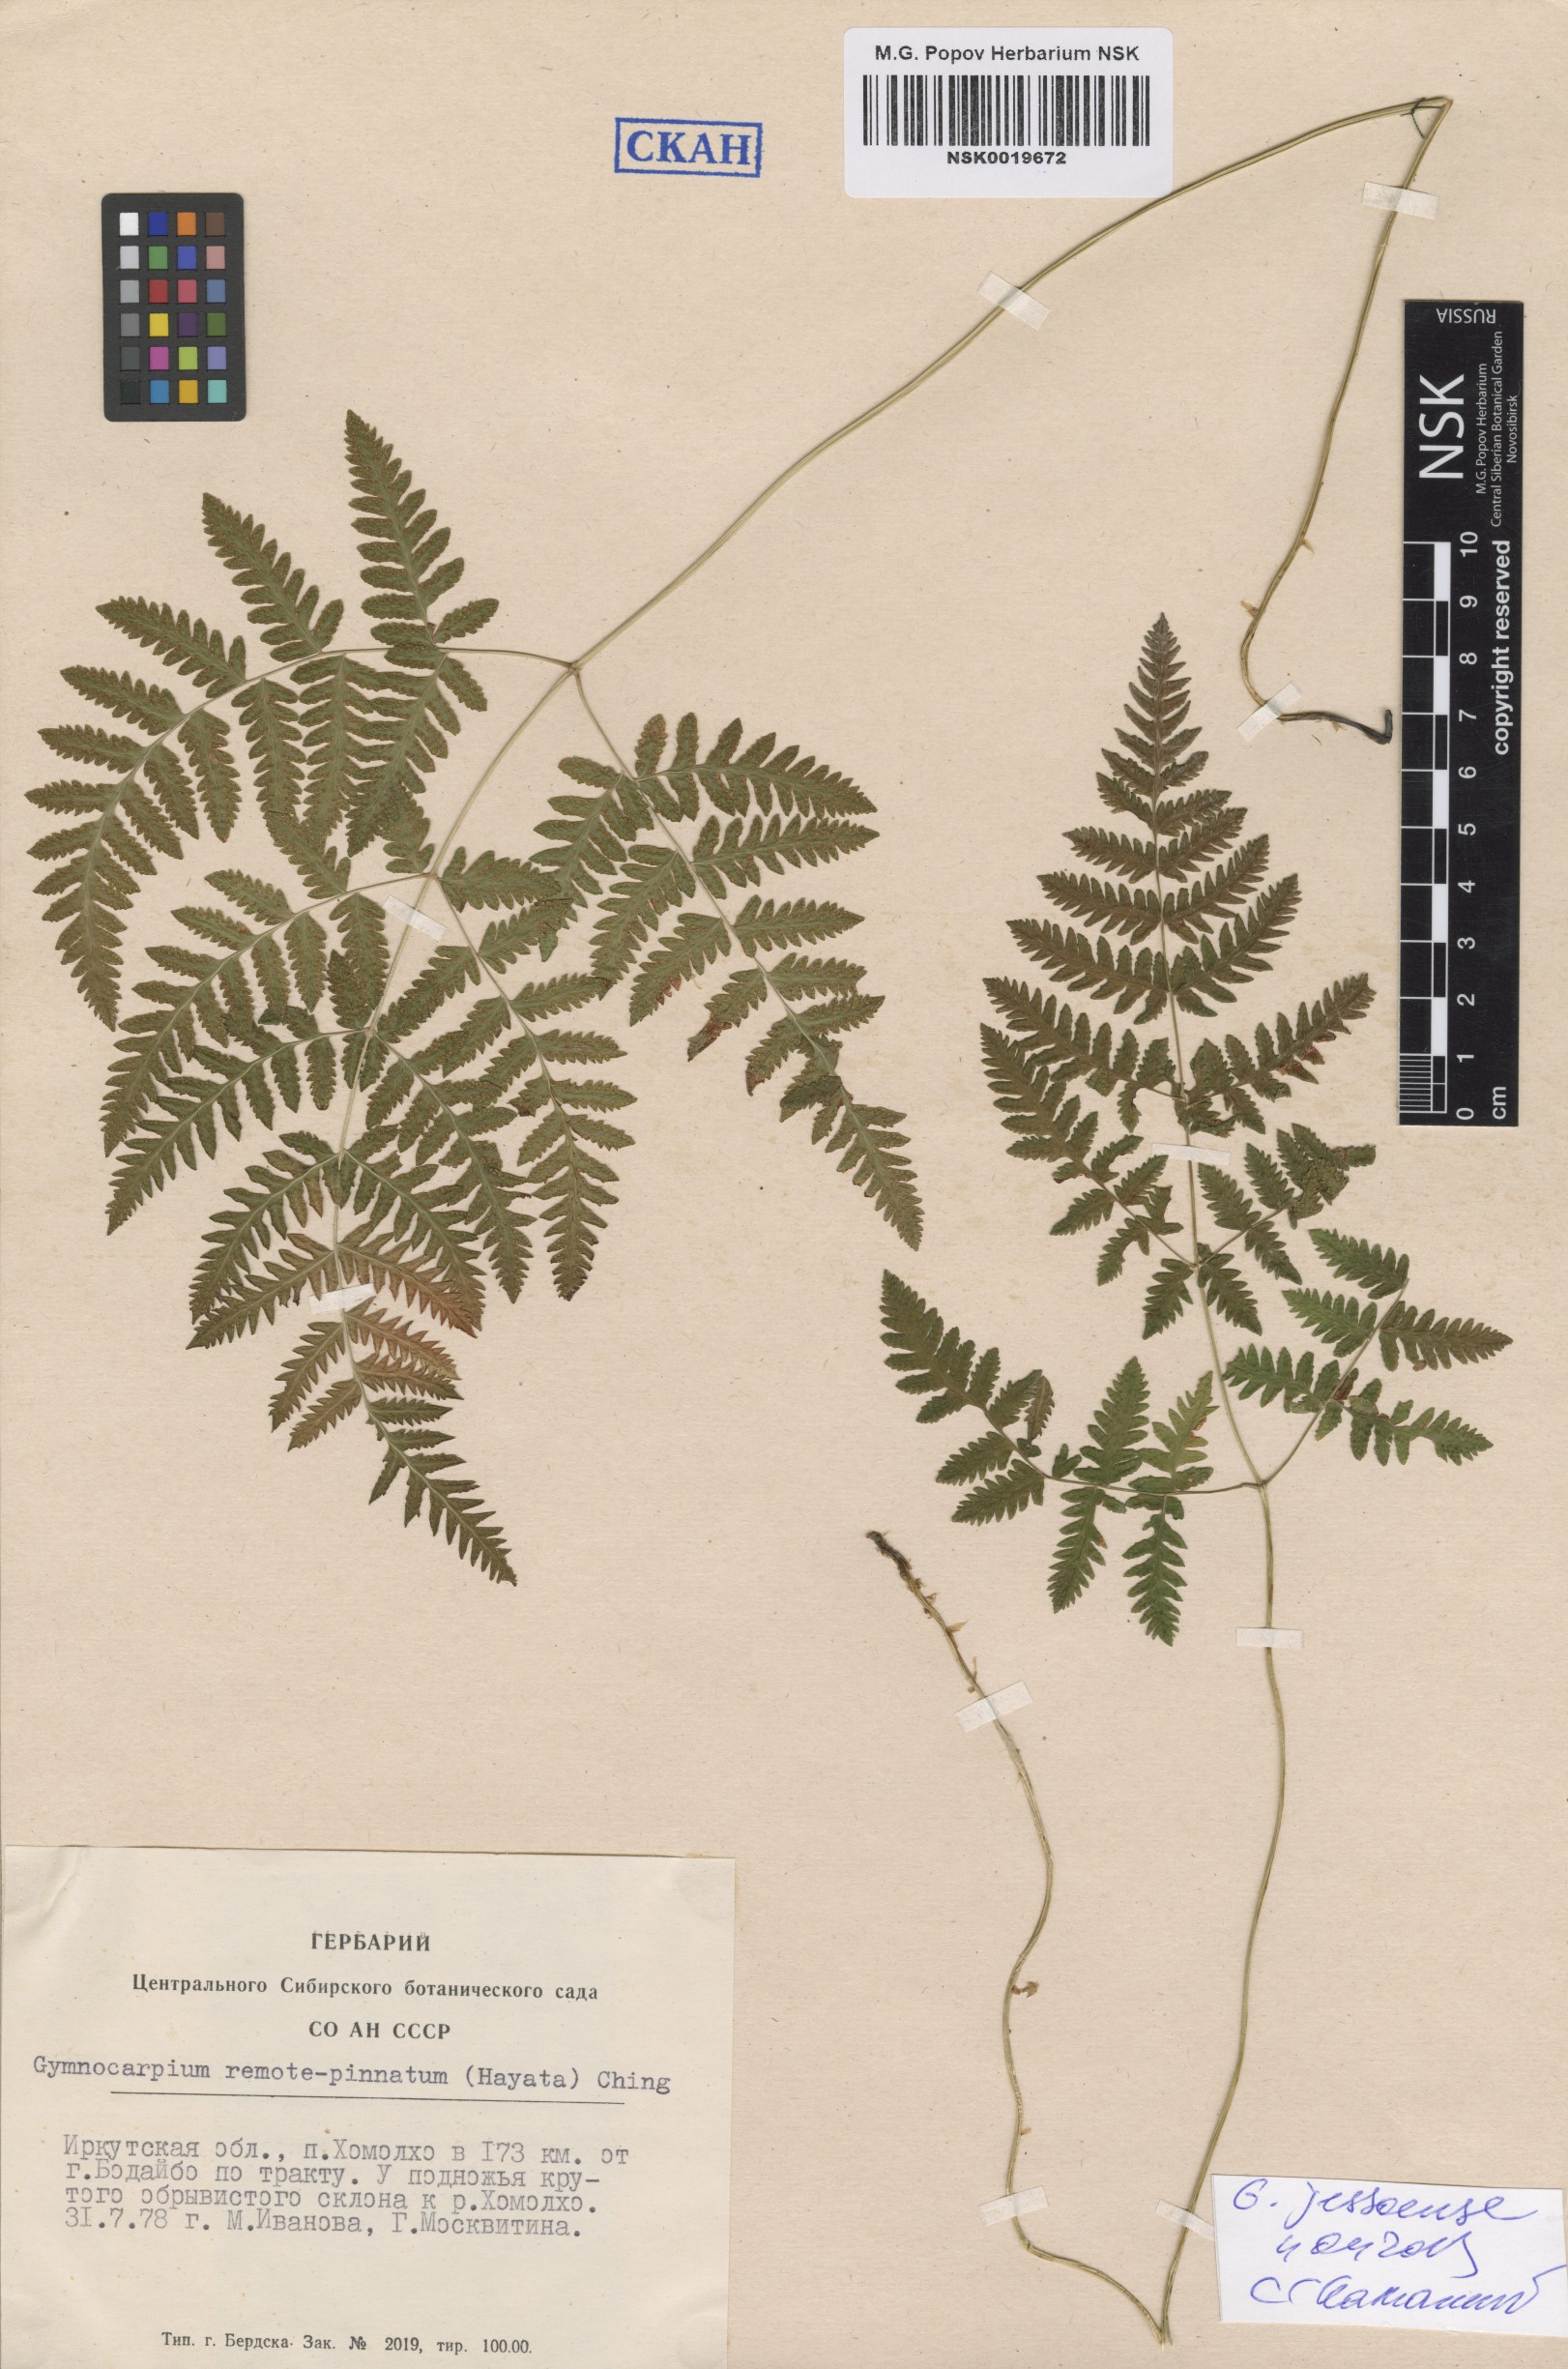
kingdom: Plantae
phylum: Tracheophyta
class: Polypodiopsida
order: Polypodiales
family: Cystopteridaceae
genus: Gymnocarpium
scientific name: Gymnocarpium jessoense
